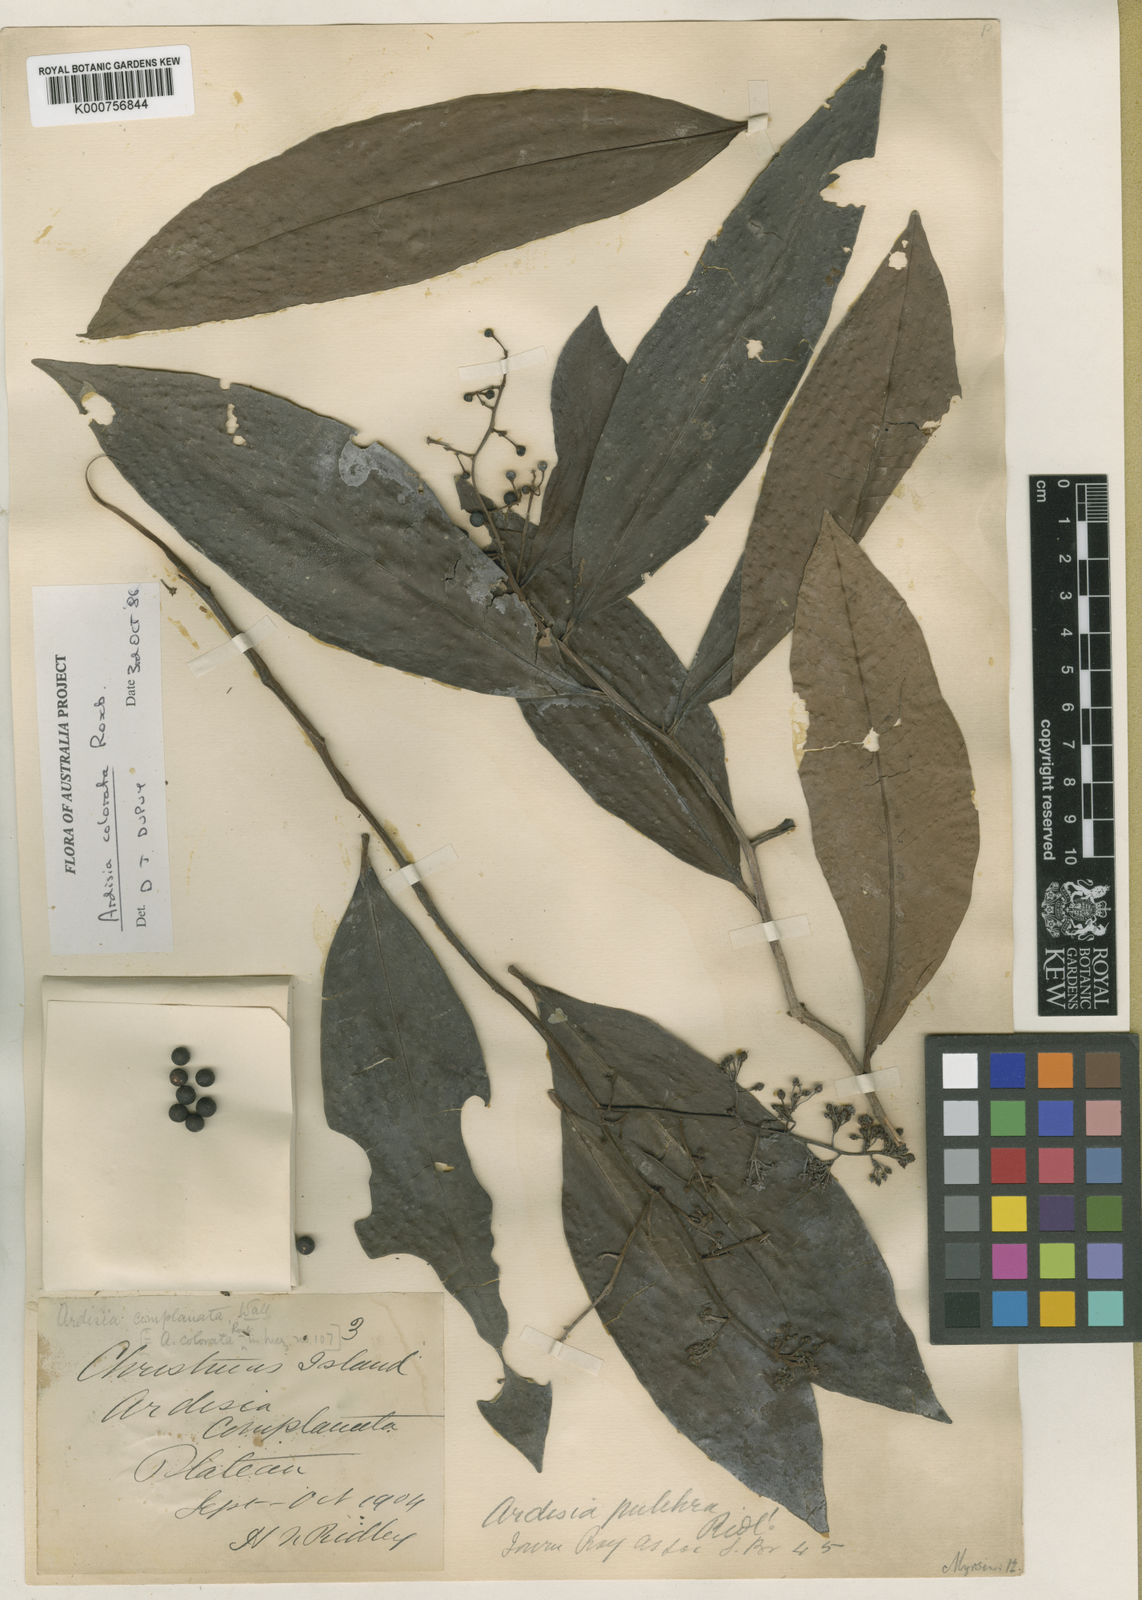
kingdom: Plantae
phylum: Tracheophyta
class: Magnoliopsida
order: Ericales
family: Primulaceae
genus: Ardisia
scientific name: Ardisia complanata
